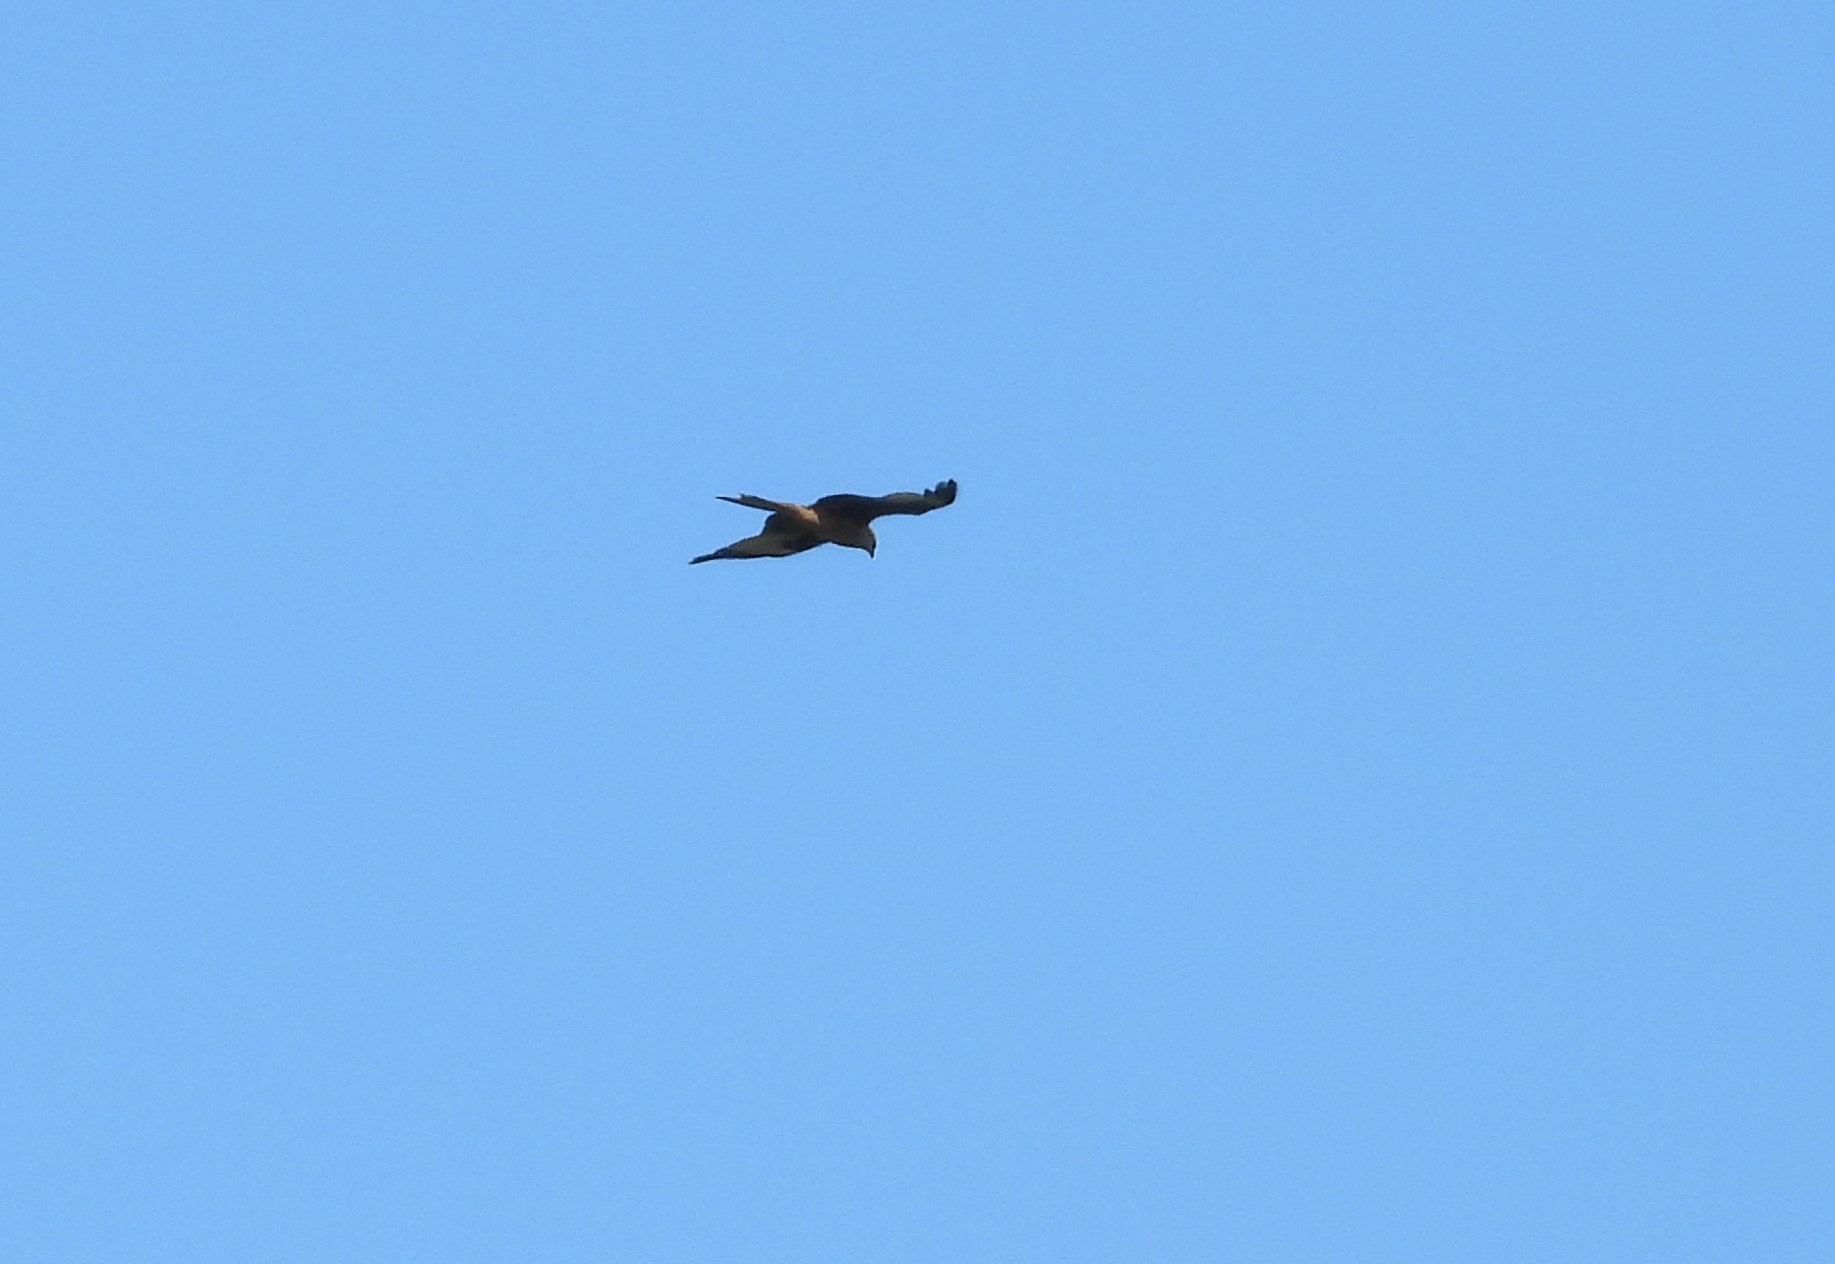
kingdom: Animalia
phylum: Chordata
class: Aves
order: Accipitriformes
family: Accipitridae
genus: Milvus
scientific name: Milvus milvus
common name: Rød glente
